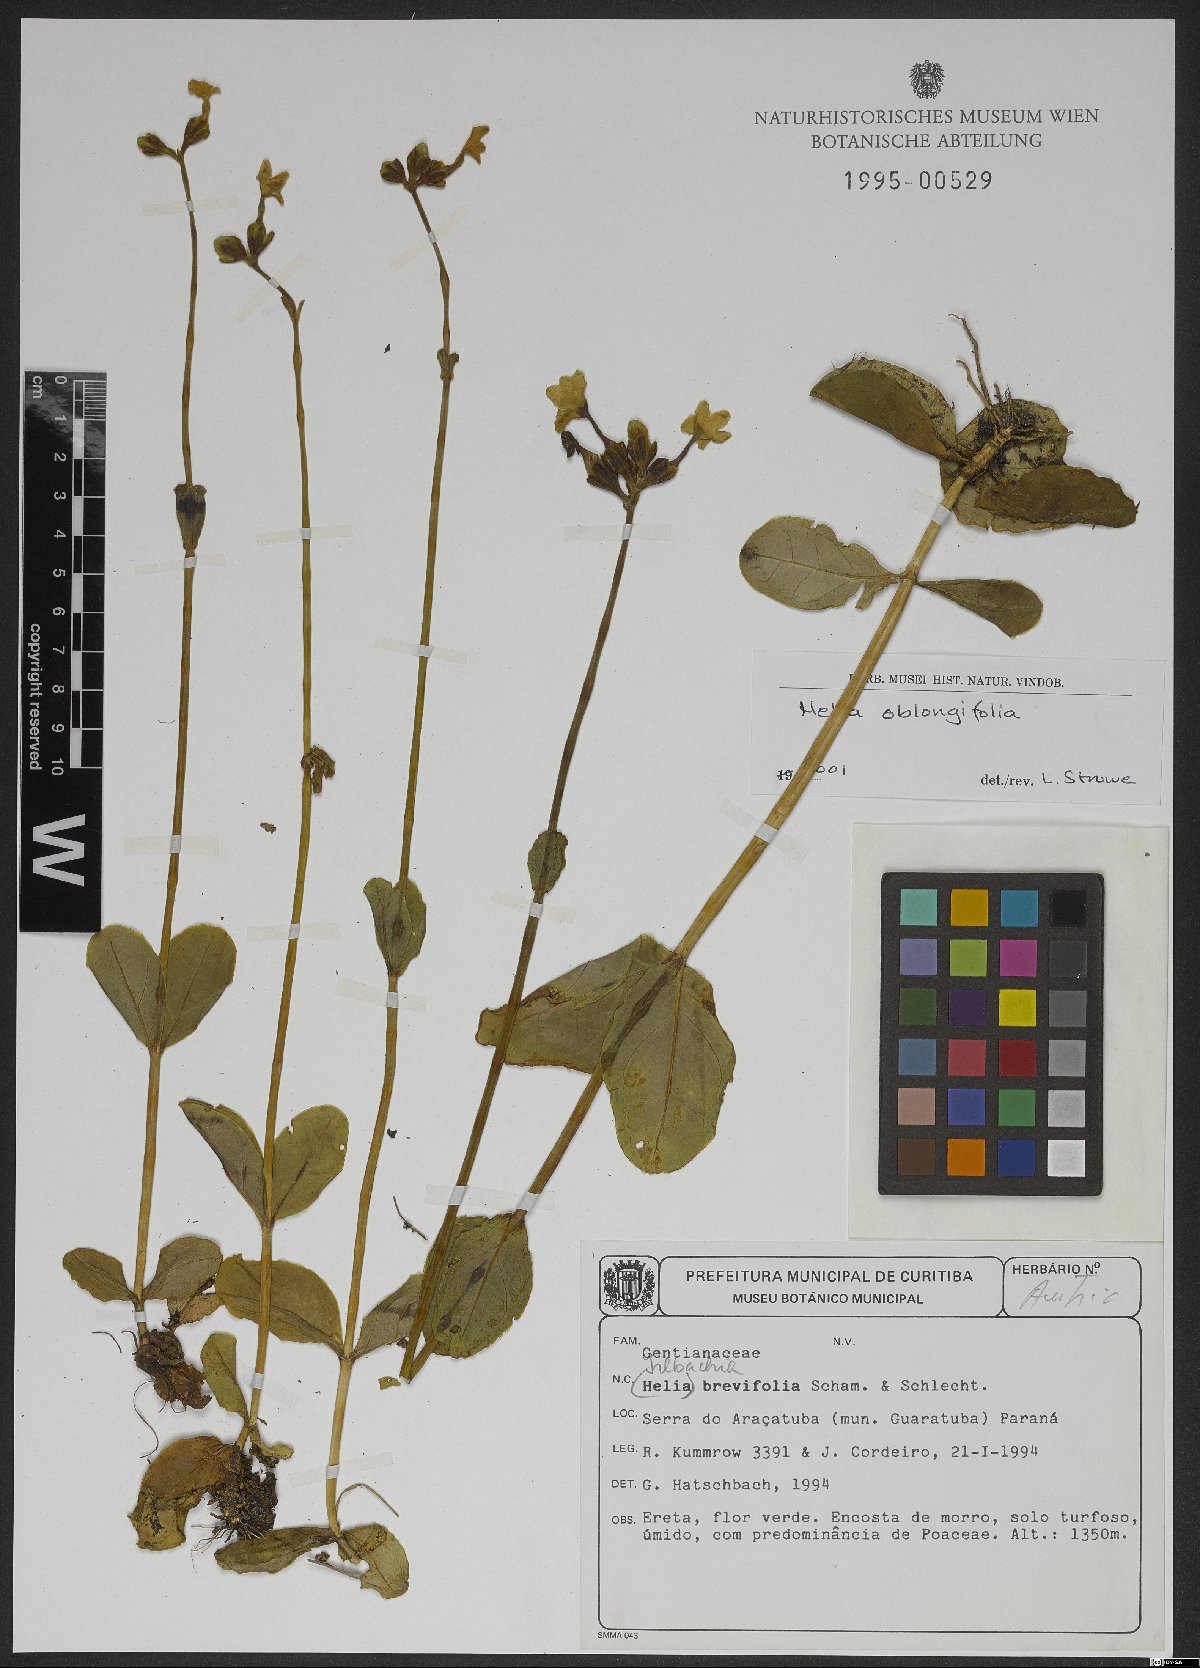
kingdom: Plantae
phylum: Tracheophyta
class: Magnoliopsida
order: Gentianales
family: Gentianaceae
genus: Irlbachia
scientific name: Irlbachia oblongifolia
